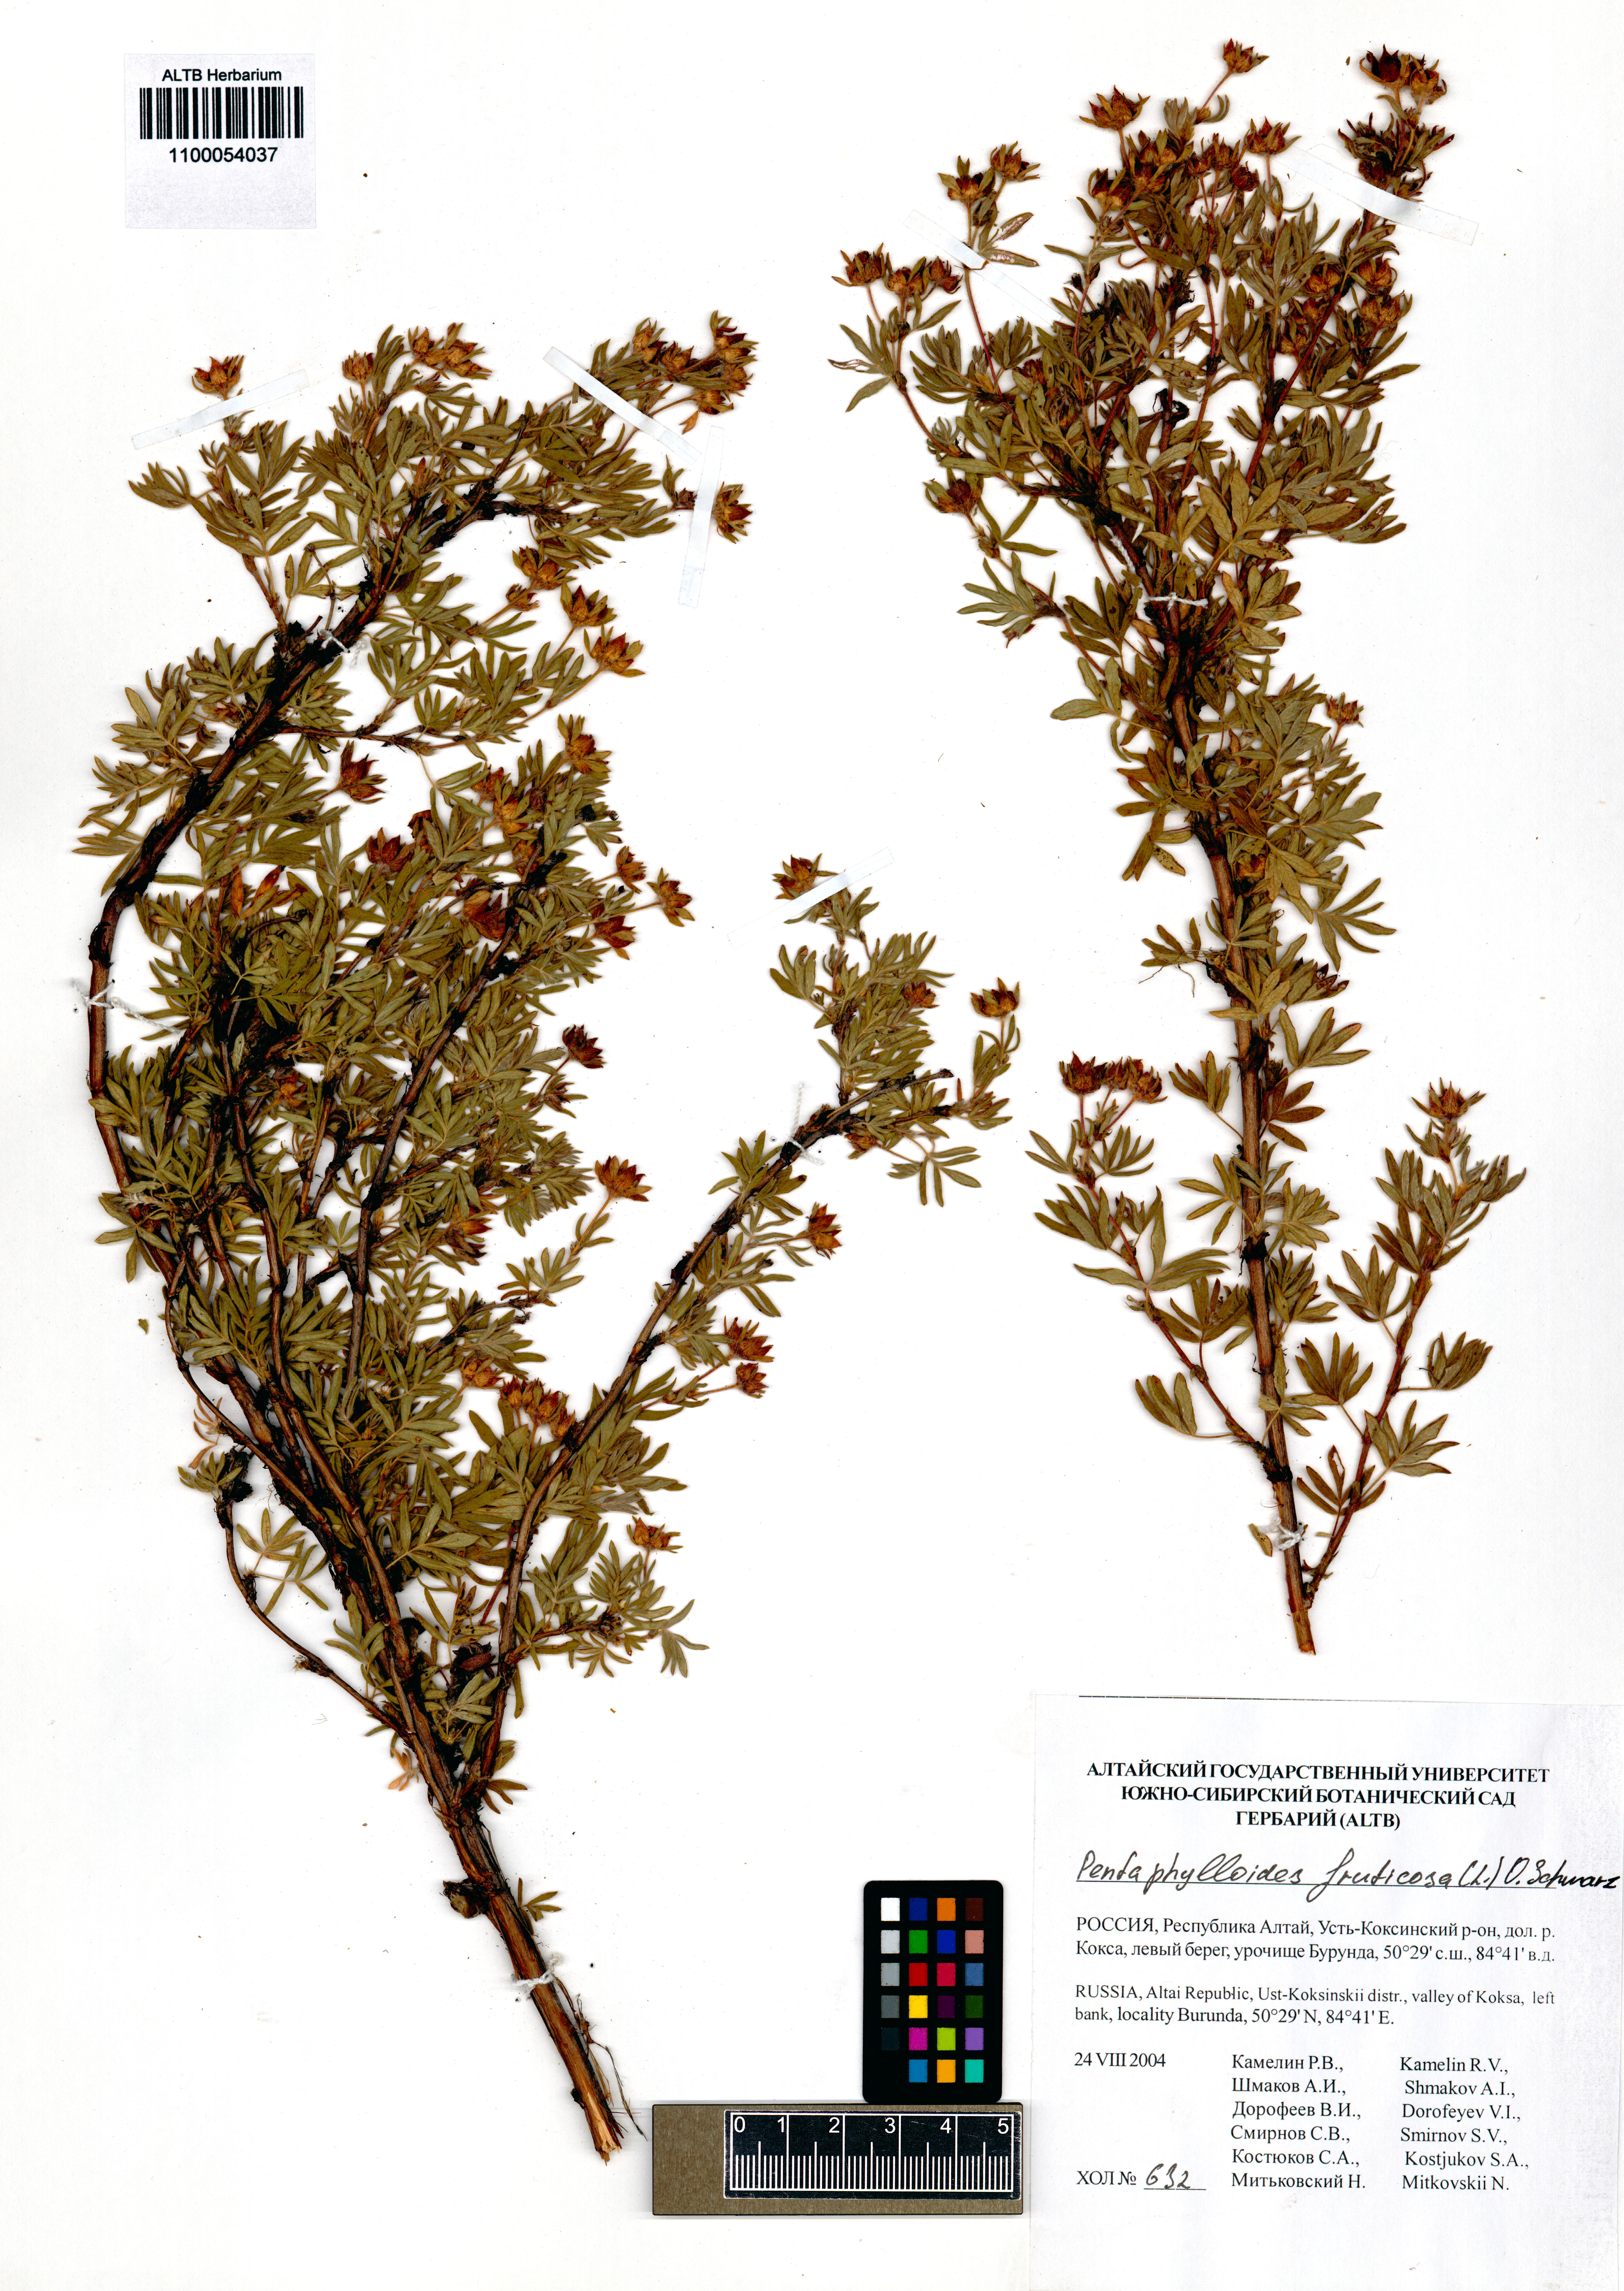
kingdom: Plantae
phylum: Tracheophyta
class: Magnoliopsida
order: Rosales
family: Rosaceae
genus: Dasiphora
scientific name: Dasiphora fruticosa
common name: Shrubby cinquefoil
